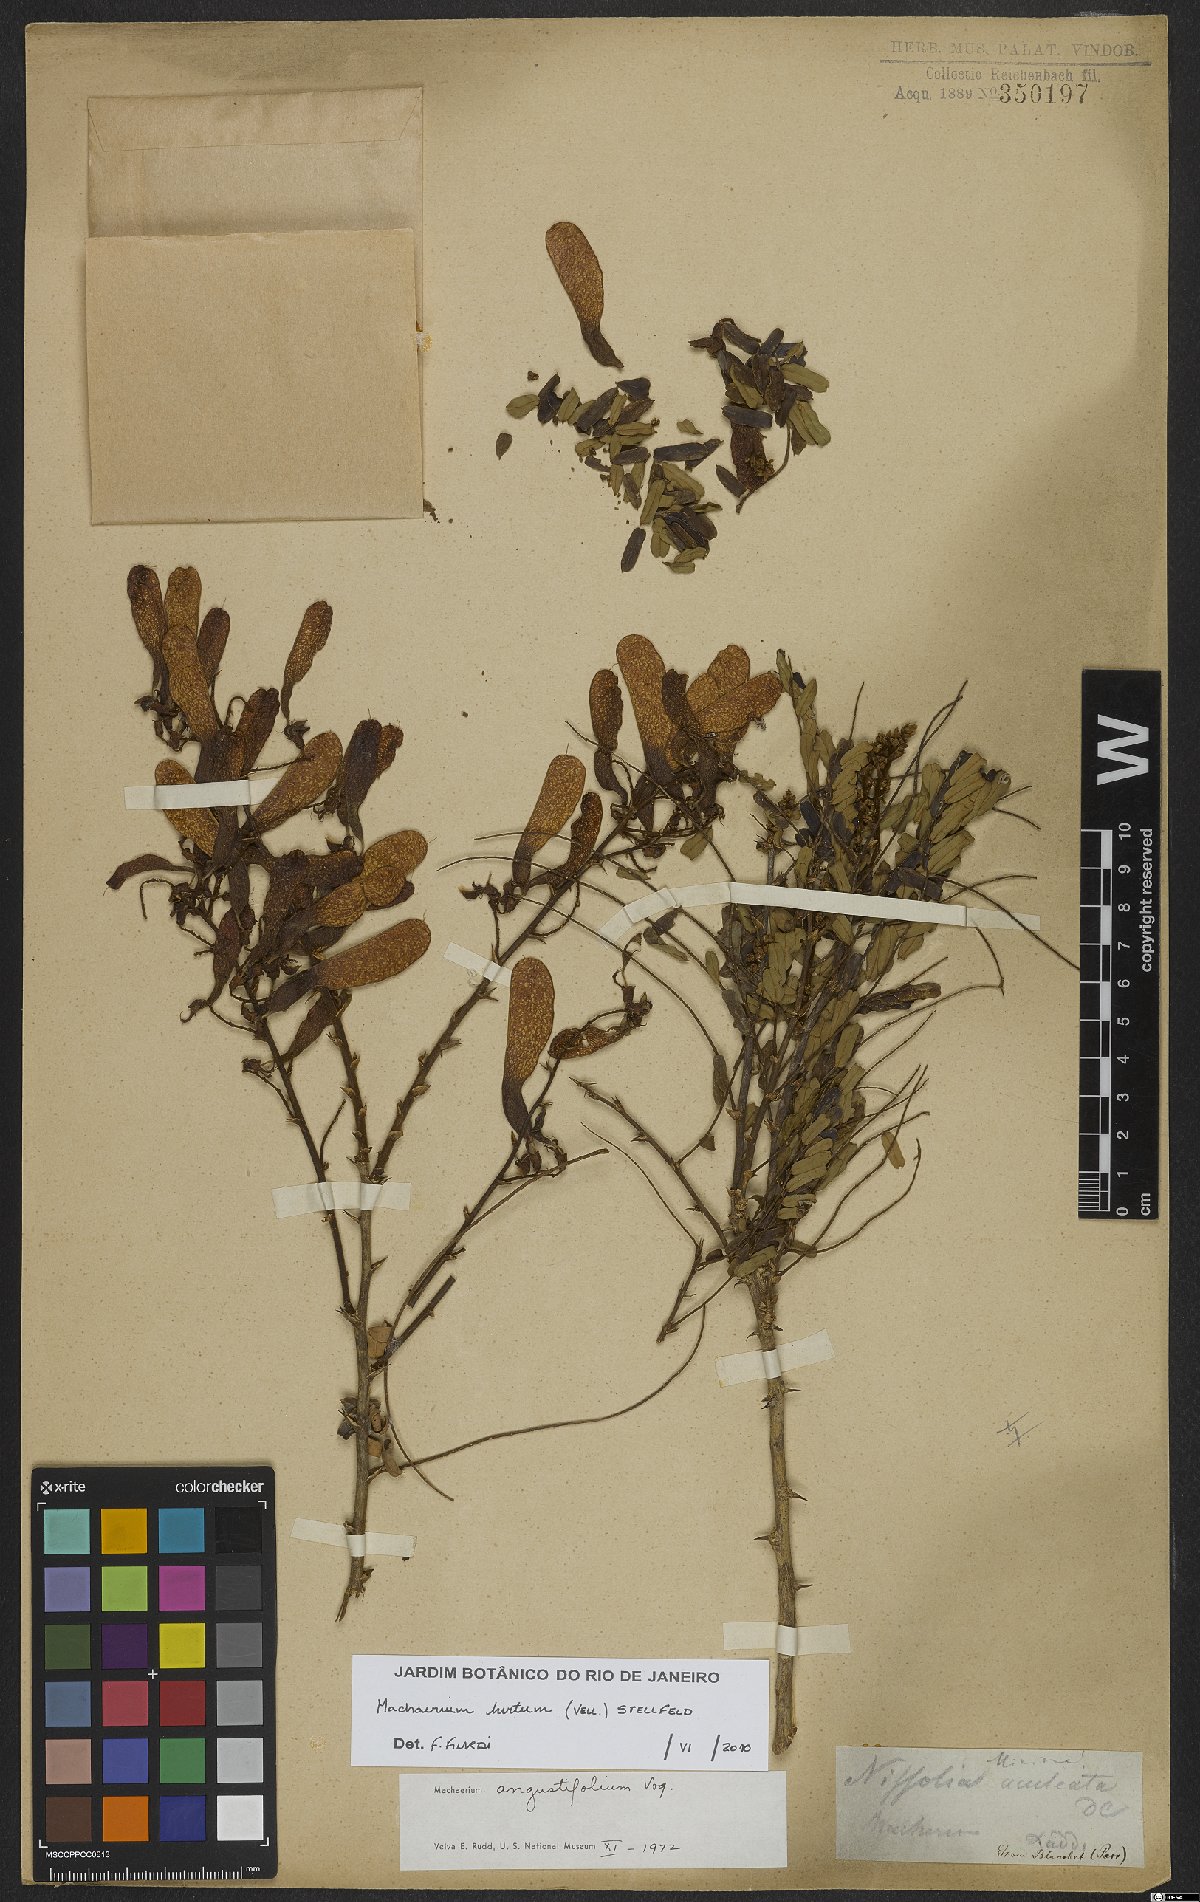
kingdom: Plantae
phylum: Tracheophyta
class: Magnoliopsida
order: Fabales
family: Fabaceae
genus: Machaerium
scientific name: Machaerium hirtum
